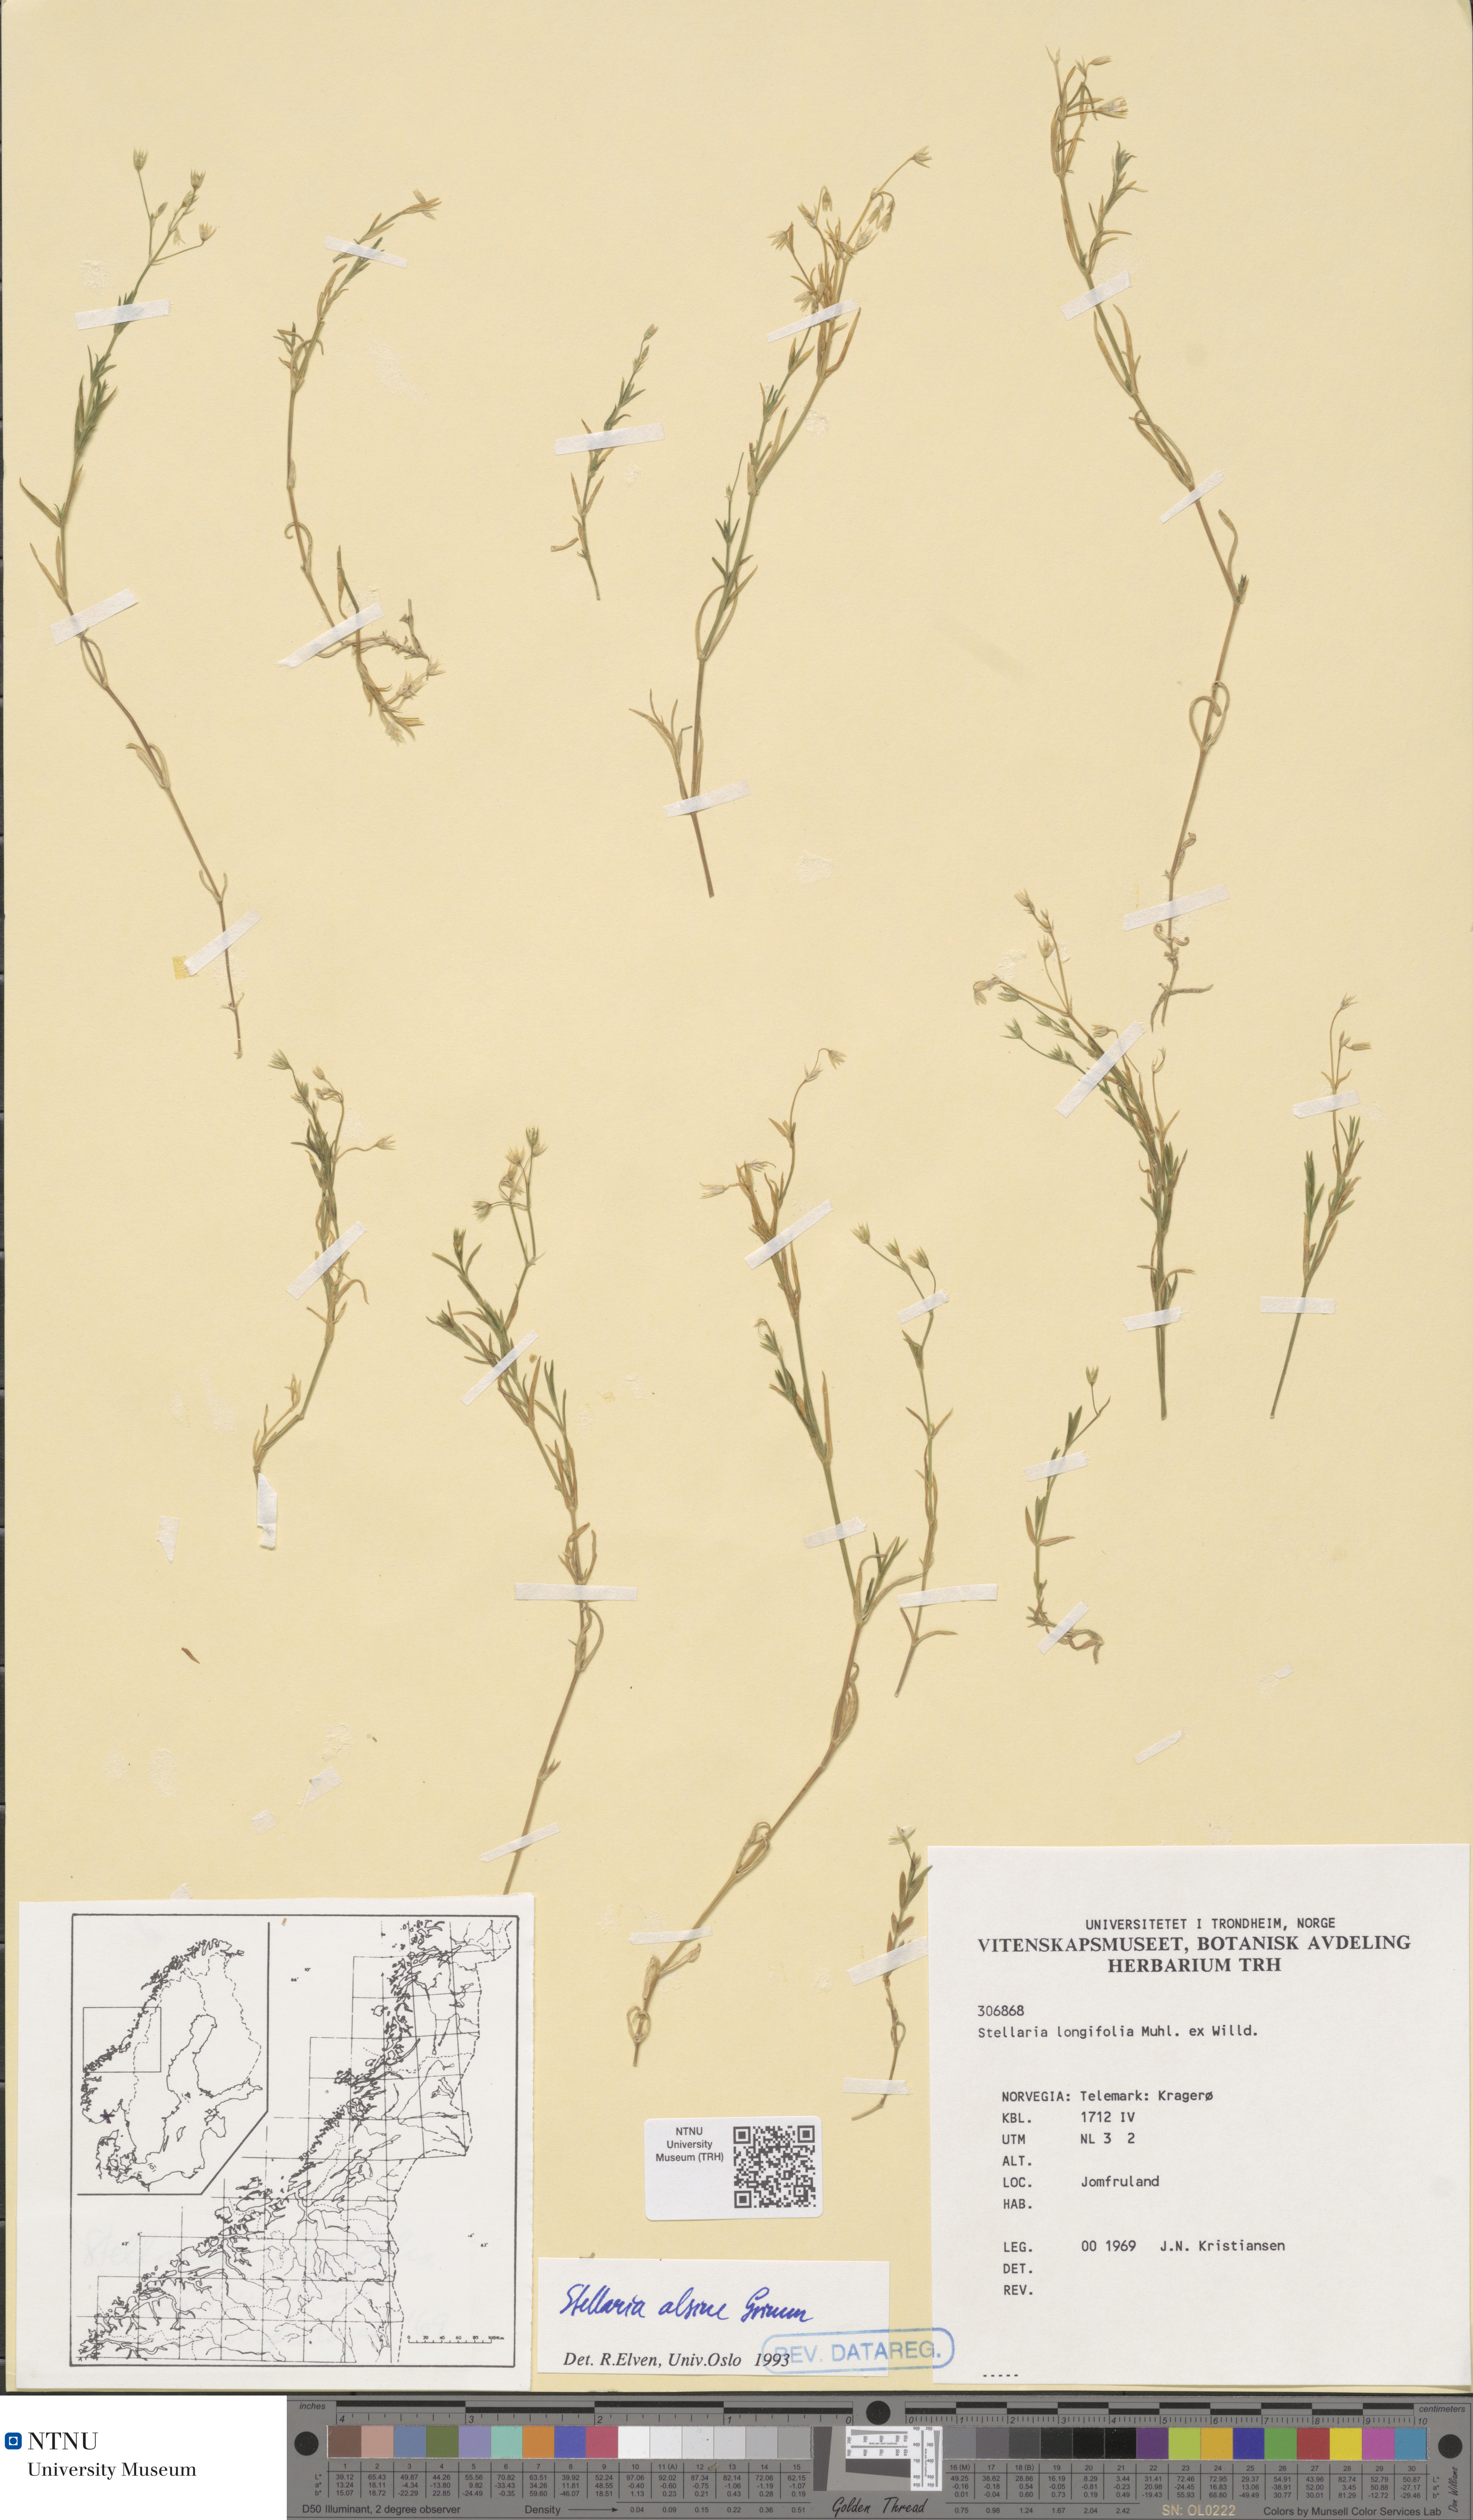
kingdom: Plantae
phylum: Tracheophyta
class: Magnoliopsida
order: Caryophyllales
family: Caryophyllaceae
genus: Stellaria
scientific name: Stellaria alsine
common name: Bog stitchwort
